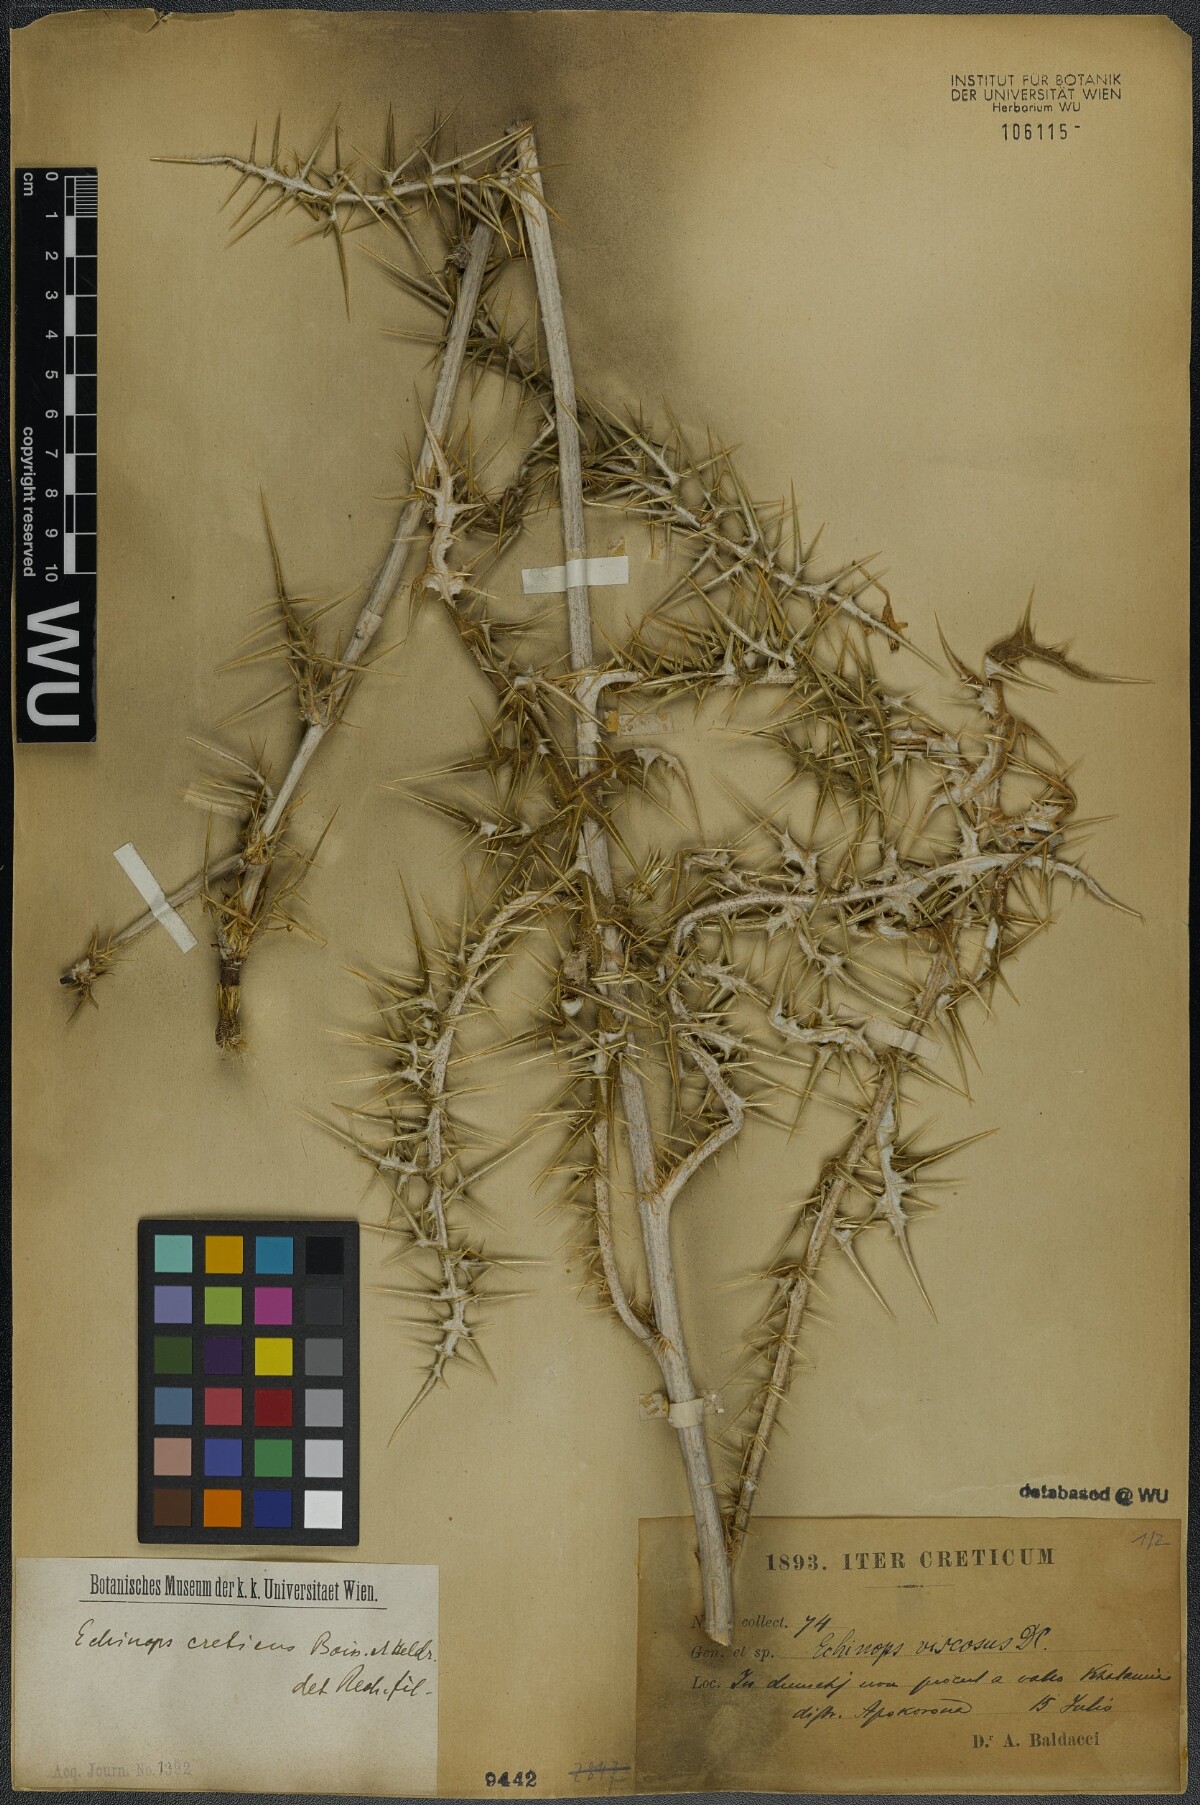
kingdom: Plantae
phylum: Tracheophyta
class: Magnoliopsida
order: Asterales
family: Asteraceae
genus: Echinops
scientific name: Echinops spinosissimus
